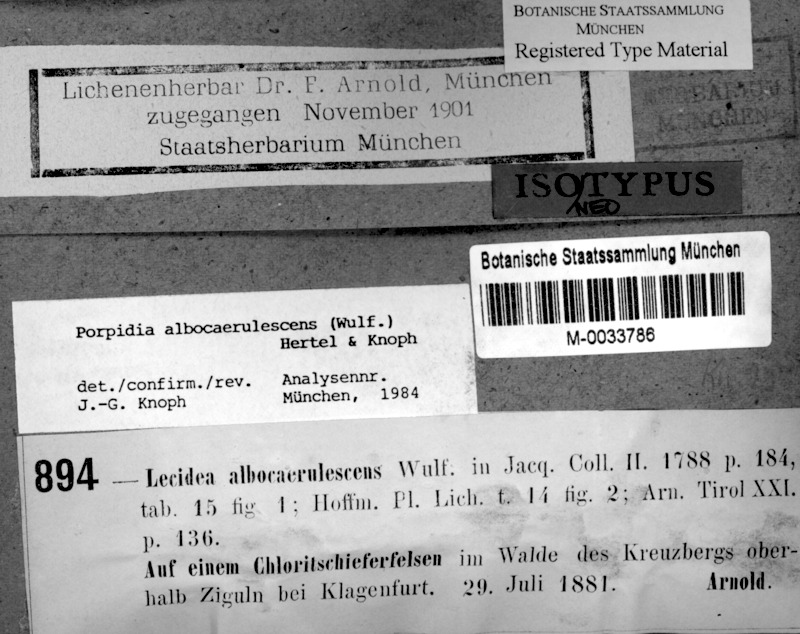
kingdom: Fungi
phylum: Ascomycota
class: Lecanoromycetes
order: Lecideales
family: Lecideaceae
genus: Porpidia
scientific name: Porpidia albocaerulescens
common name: Smokey-eyed boulder lichen
